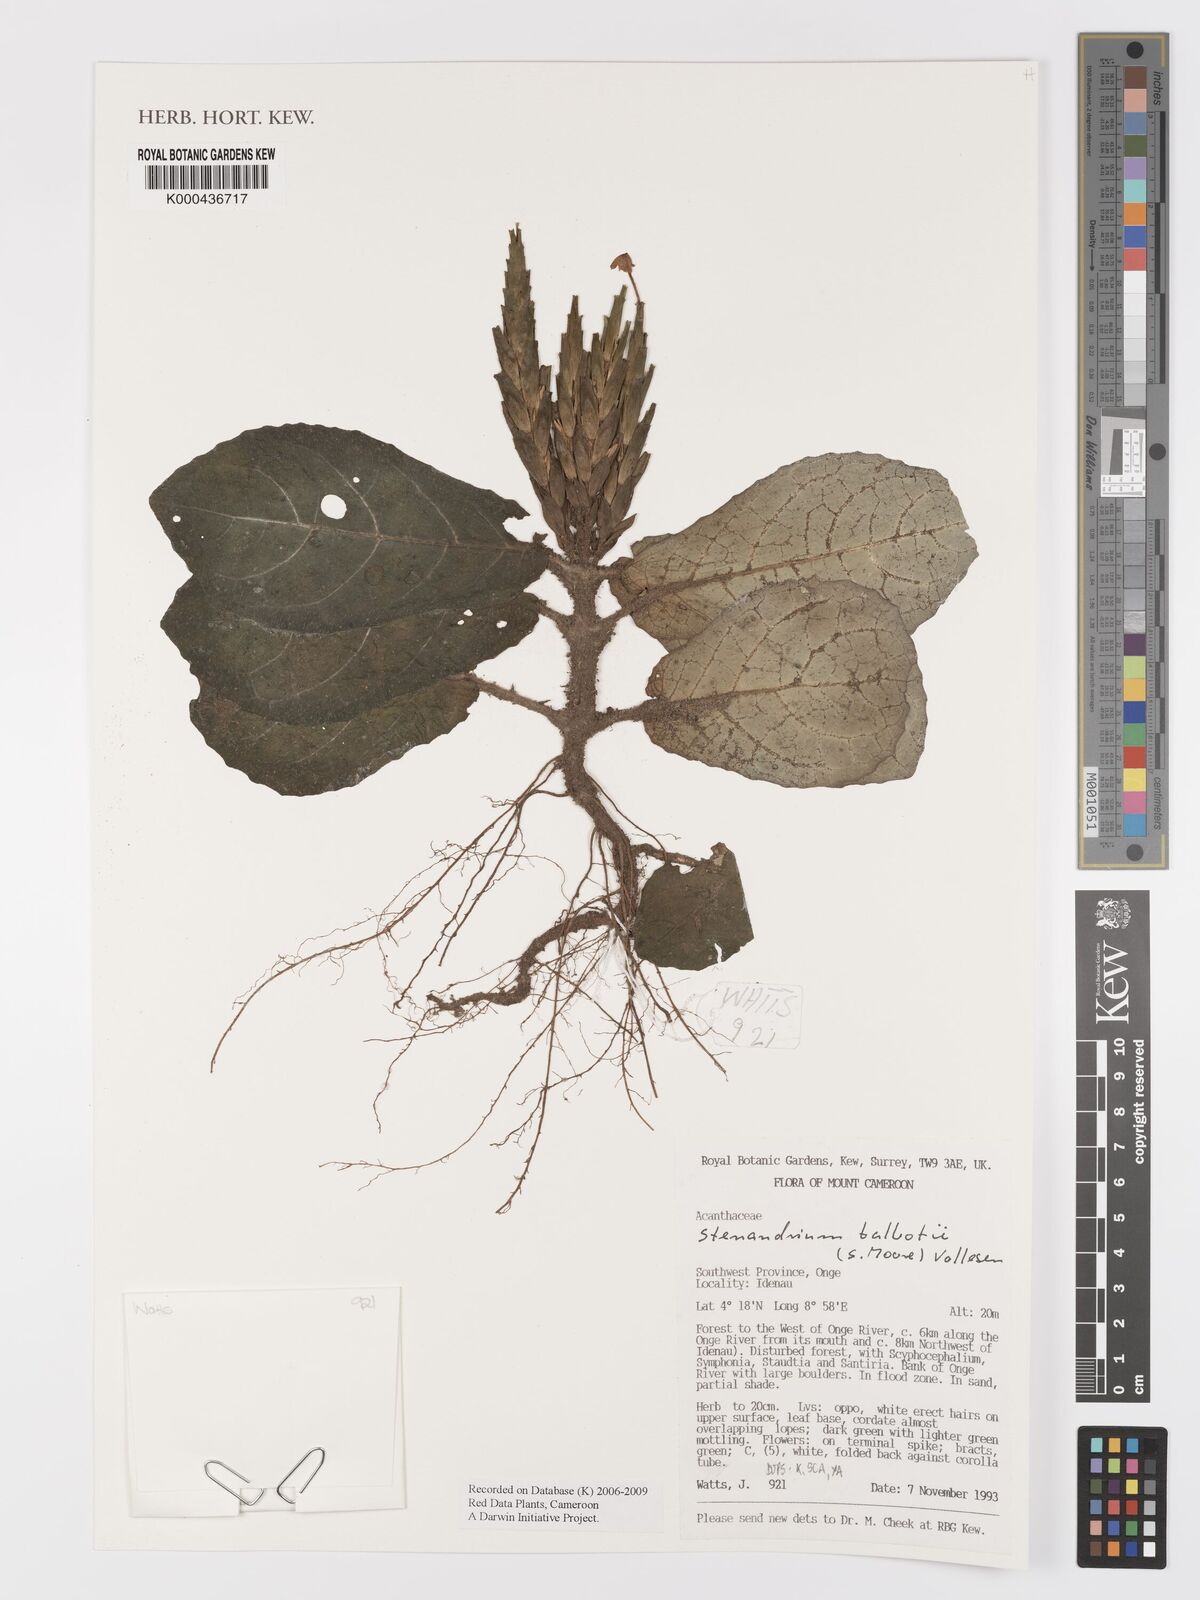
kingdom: Plantae
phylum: Tracheophyta
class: Magnoliopsida
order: Lamiales
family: Acanthaceae
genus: Stenandriopsis
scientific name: Stenandriopsis talbotii
